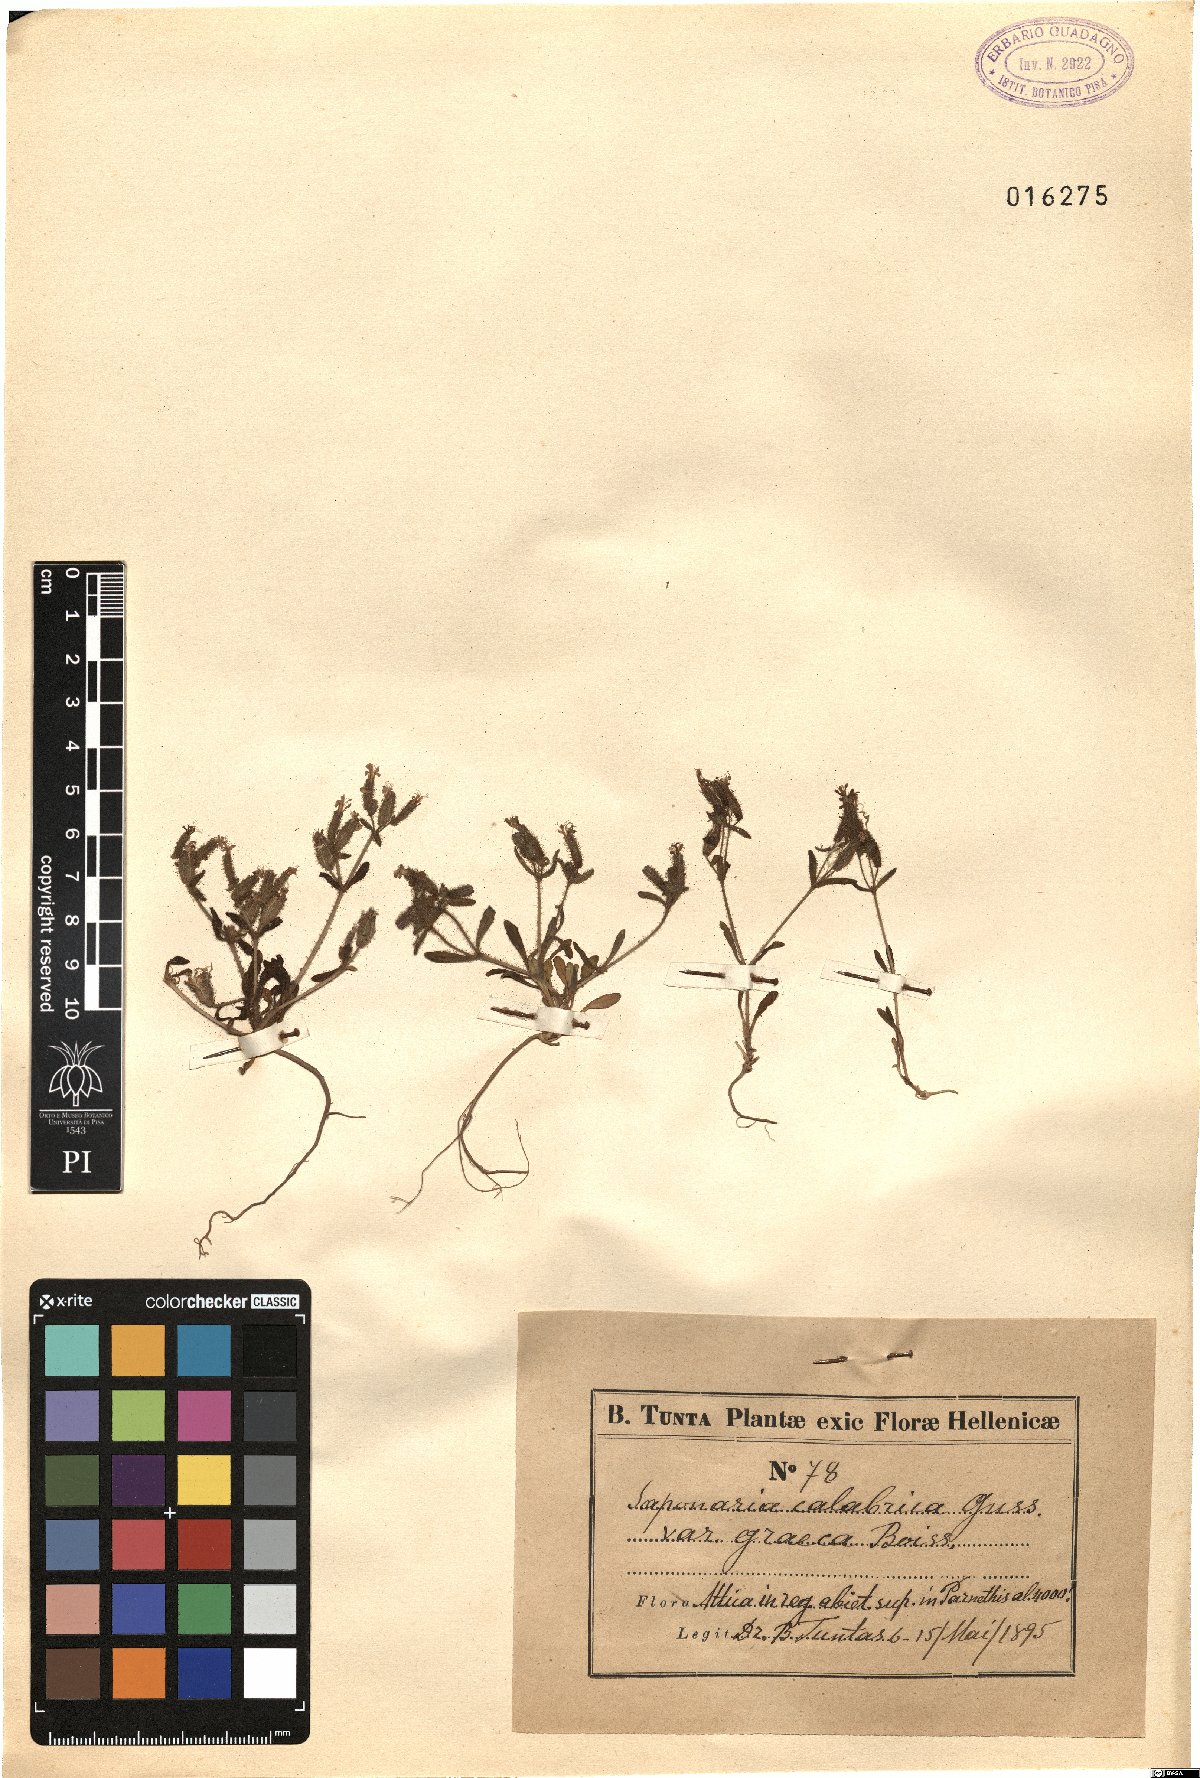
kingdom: Plantae
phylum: Tracheophyta
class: Magnoliopsida
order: Caryophyllales
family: Caryophyllaceae
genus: Saponaria
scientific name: Saponaria calabrica
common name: Adriatic soapwort
